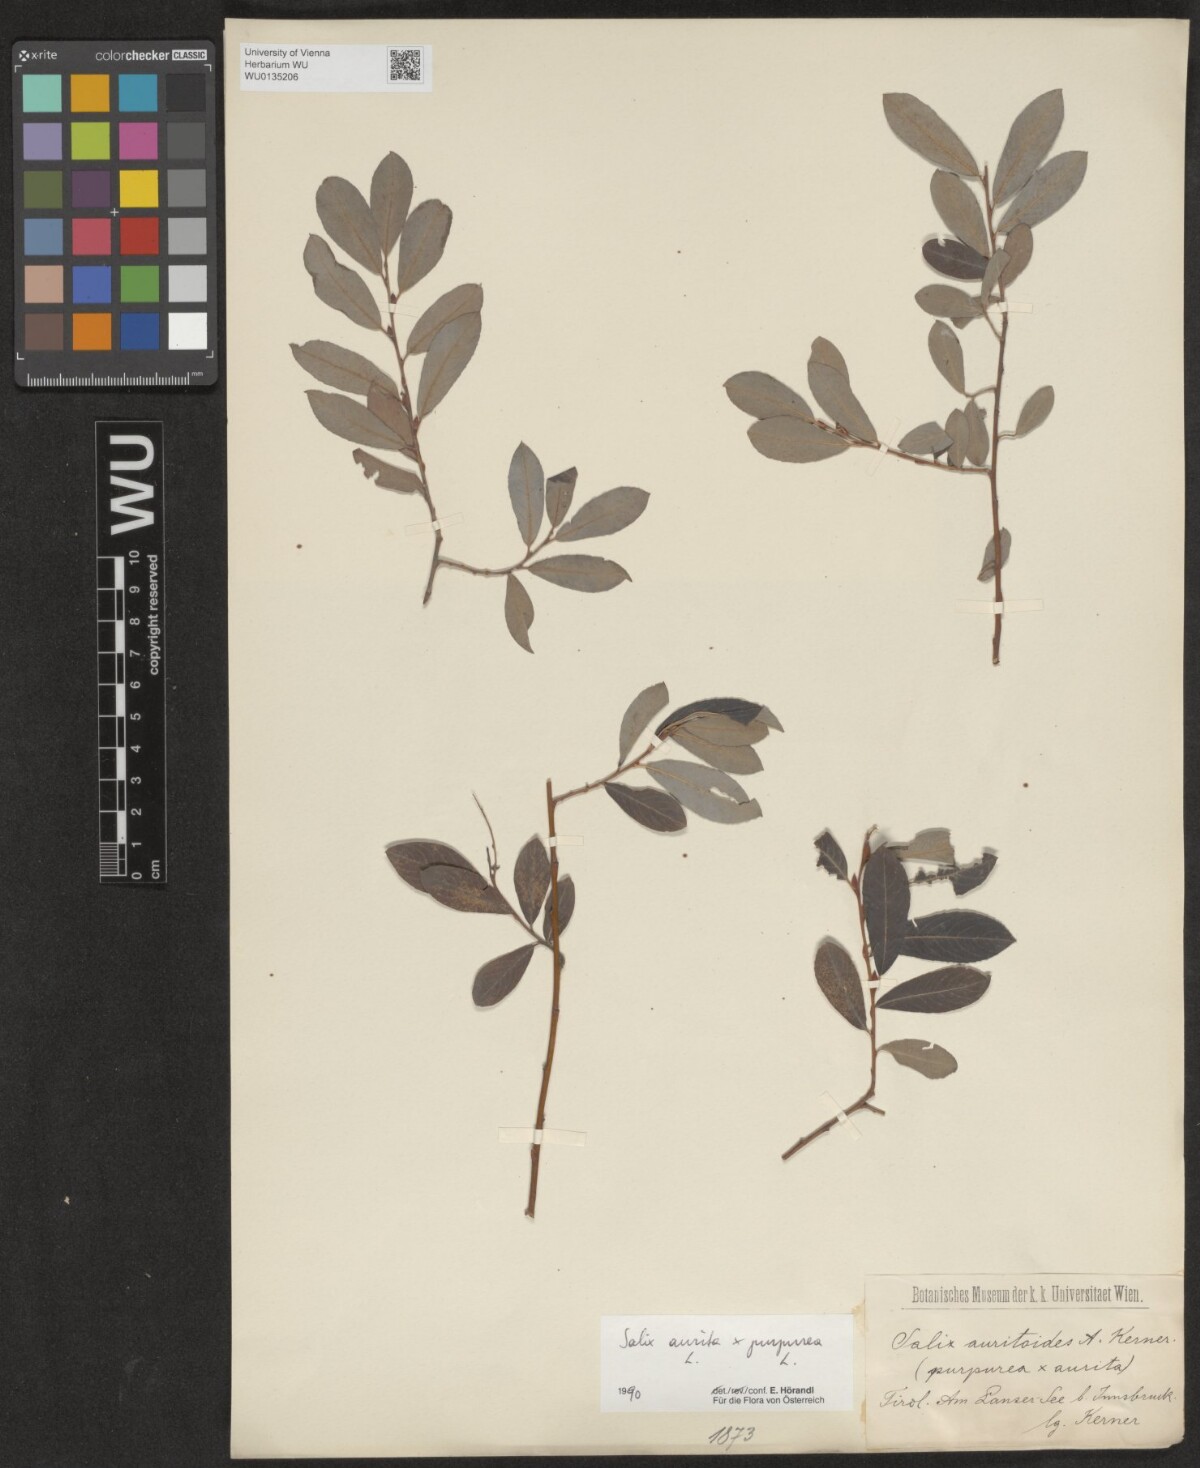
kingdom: Plantae
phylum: Tracheophyta
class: Magnoliopsida
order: Malpighiales
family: Salicaceae
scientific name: Salicaceae
